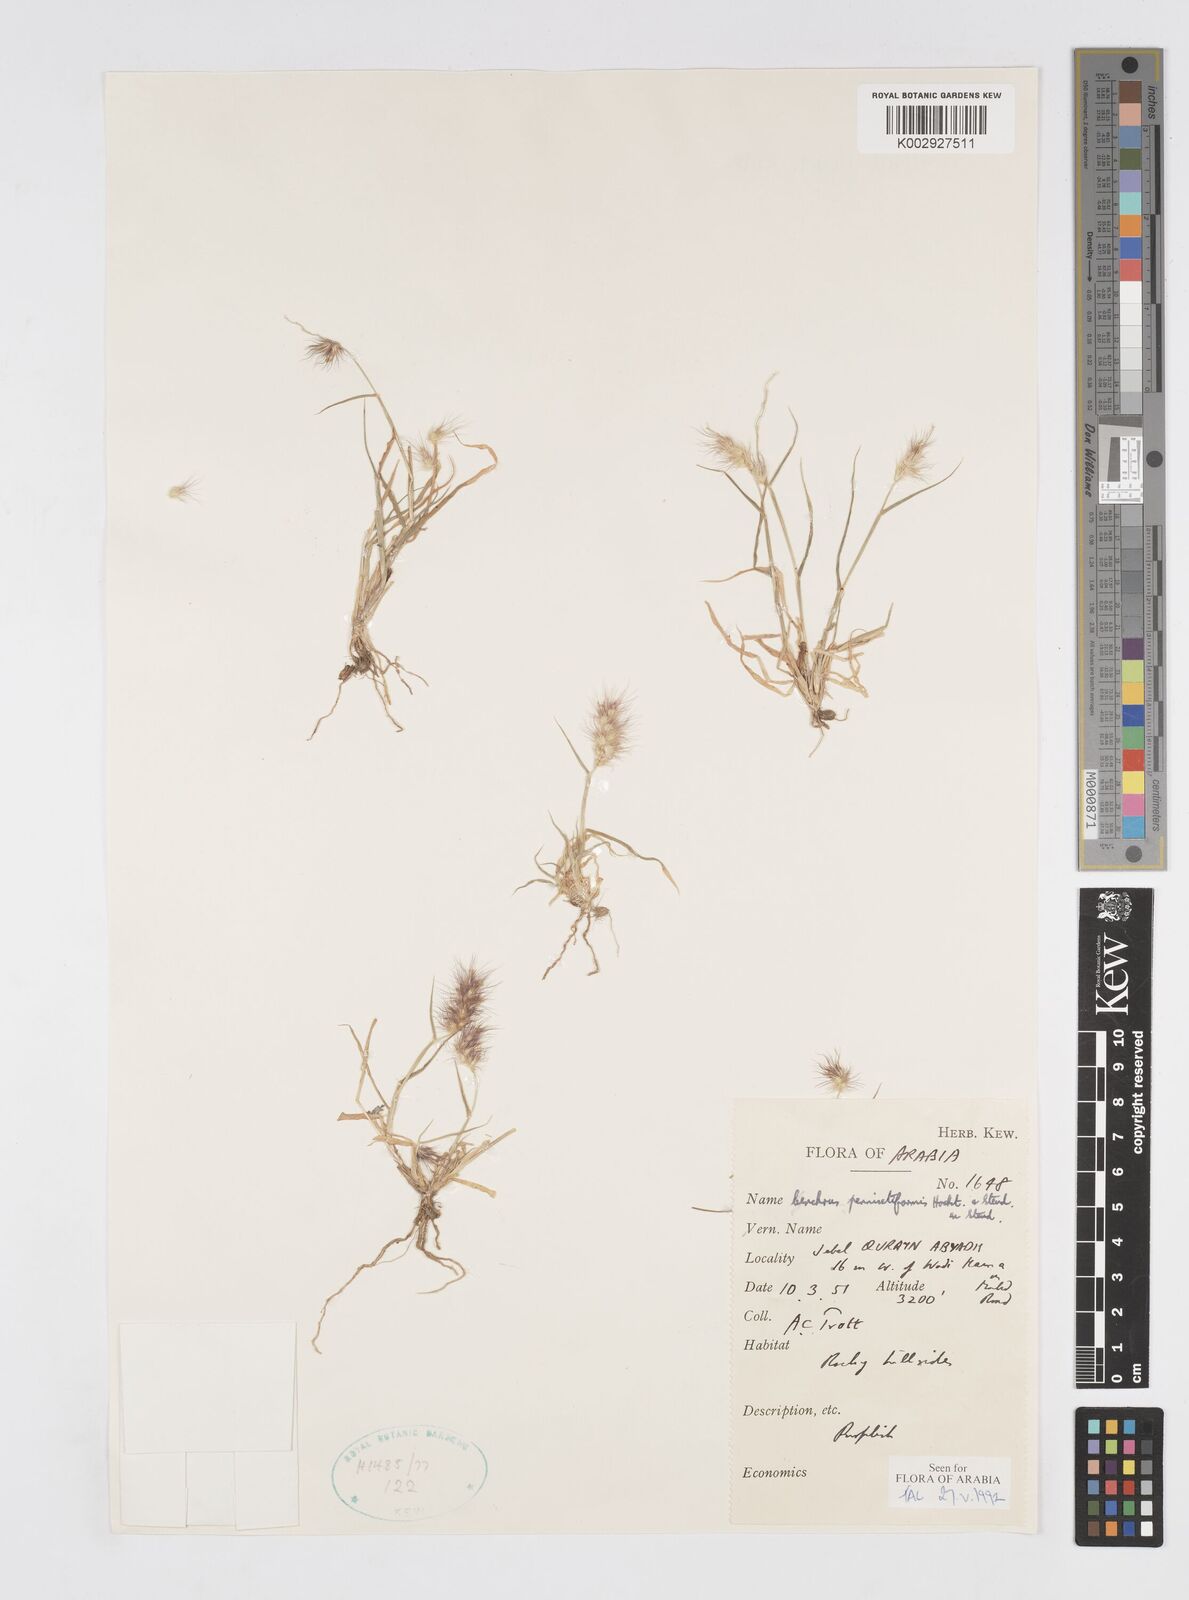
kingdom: Plantae
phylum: Tracheophyta
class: Liliopsida
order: Poales
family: Poaceae
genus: Cenchrus
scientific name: Cenchrus pennisetiformis
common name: Cloncurry
